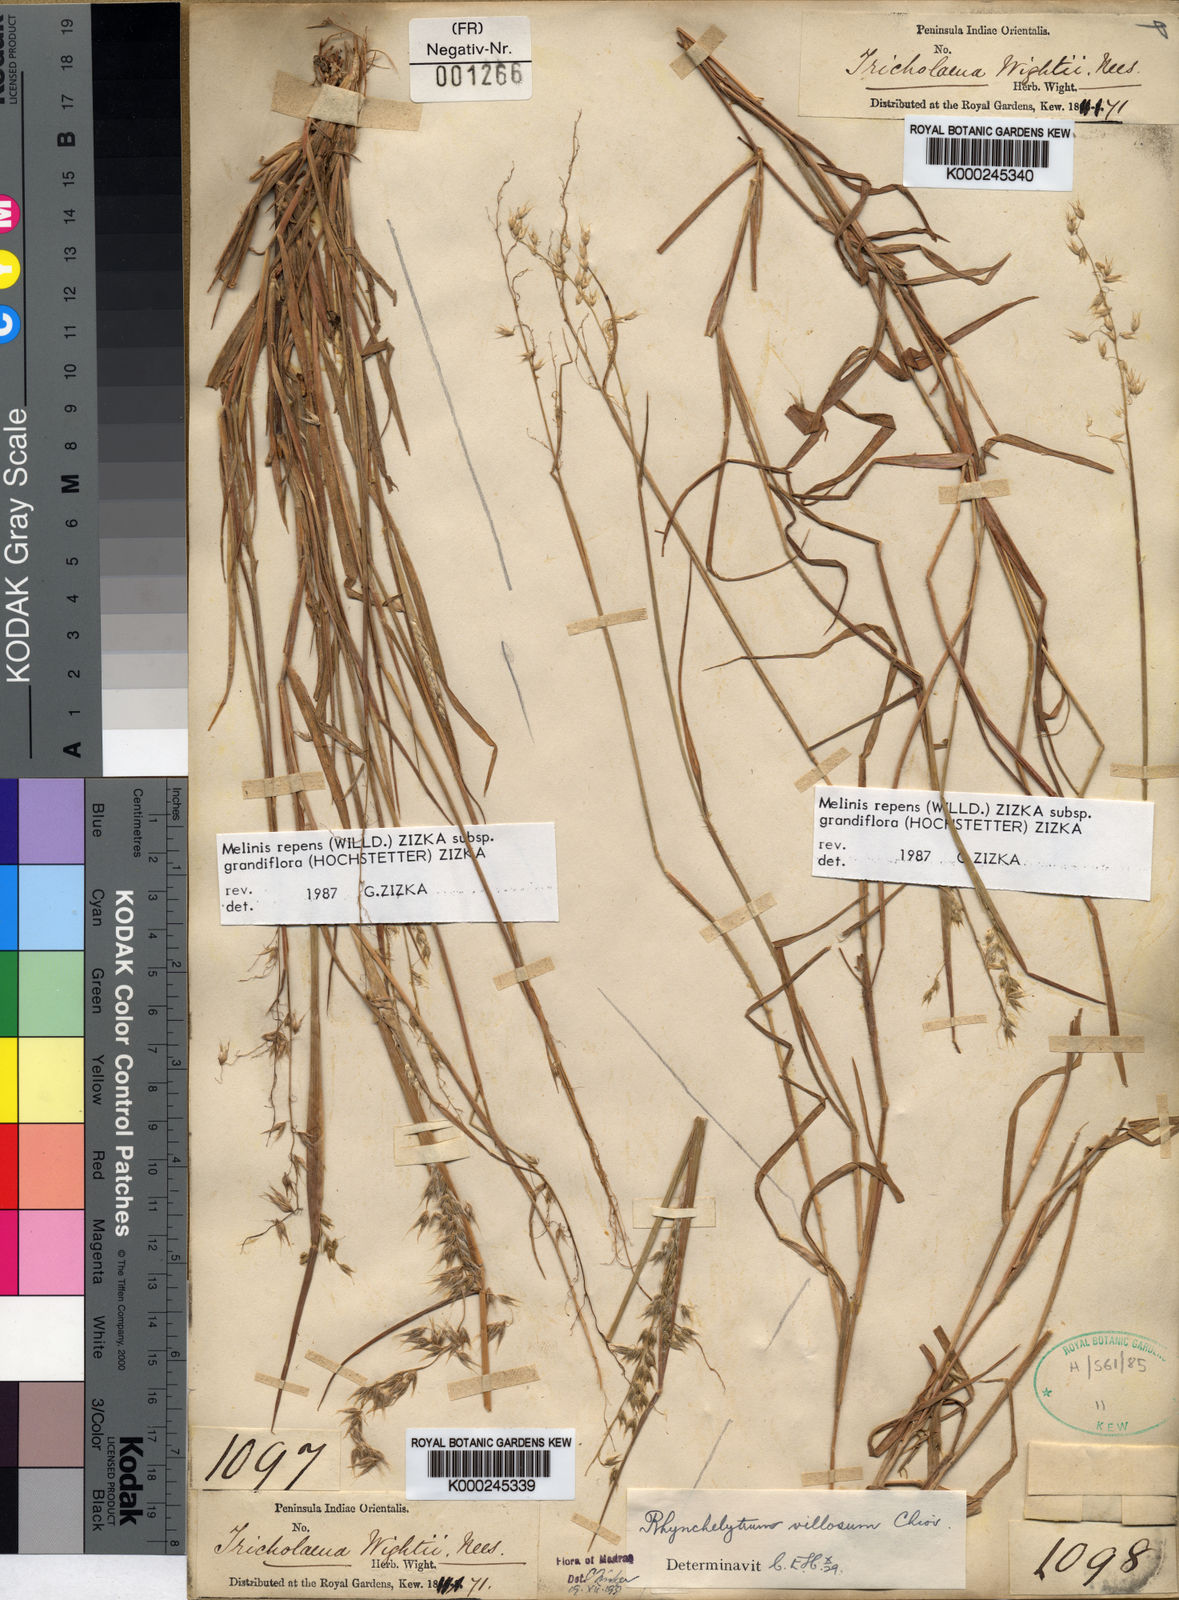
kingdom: Plantae
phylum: Tracheophyta
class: Liliopsida
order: Poales
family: Poaceae
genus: Melinis
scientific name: Melinis repens
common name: Rose natal grass
